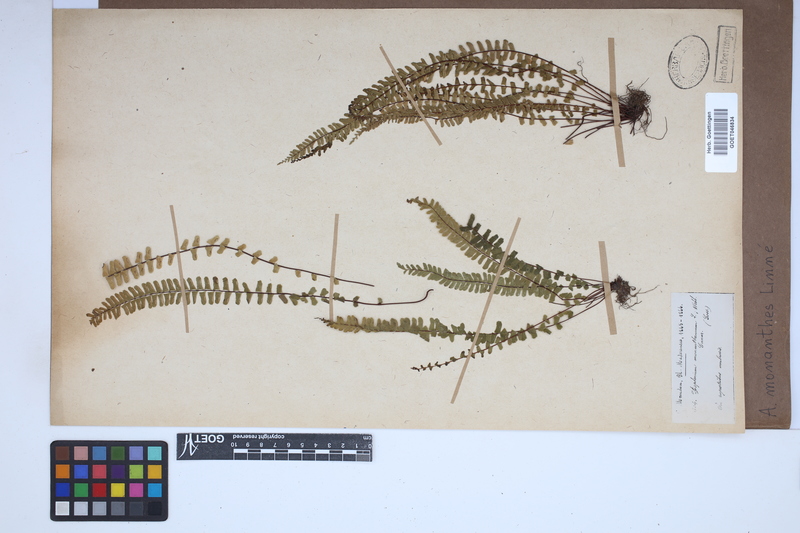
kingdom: Plantae
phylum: Tracheophyta
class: Polypodiopsida
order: Polypodiales
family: Aspleniaceae
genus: Asplenium
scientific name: Asplenium monanthes
